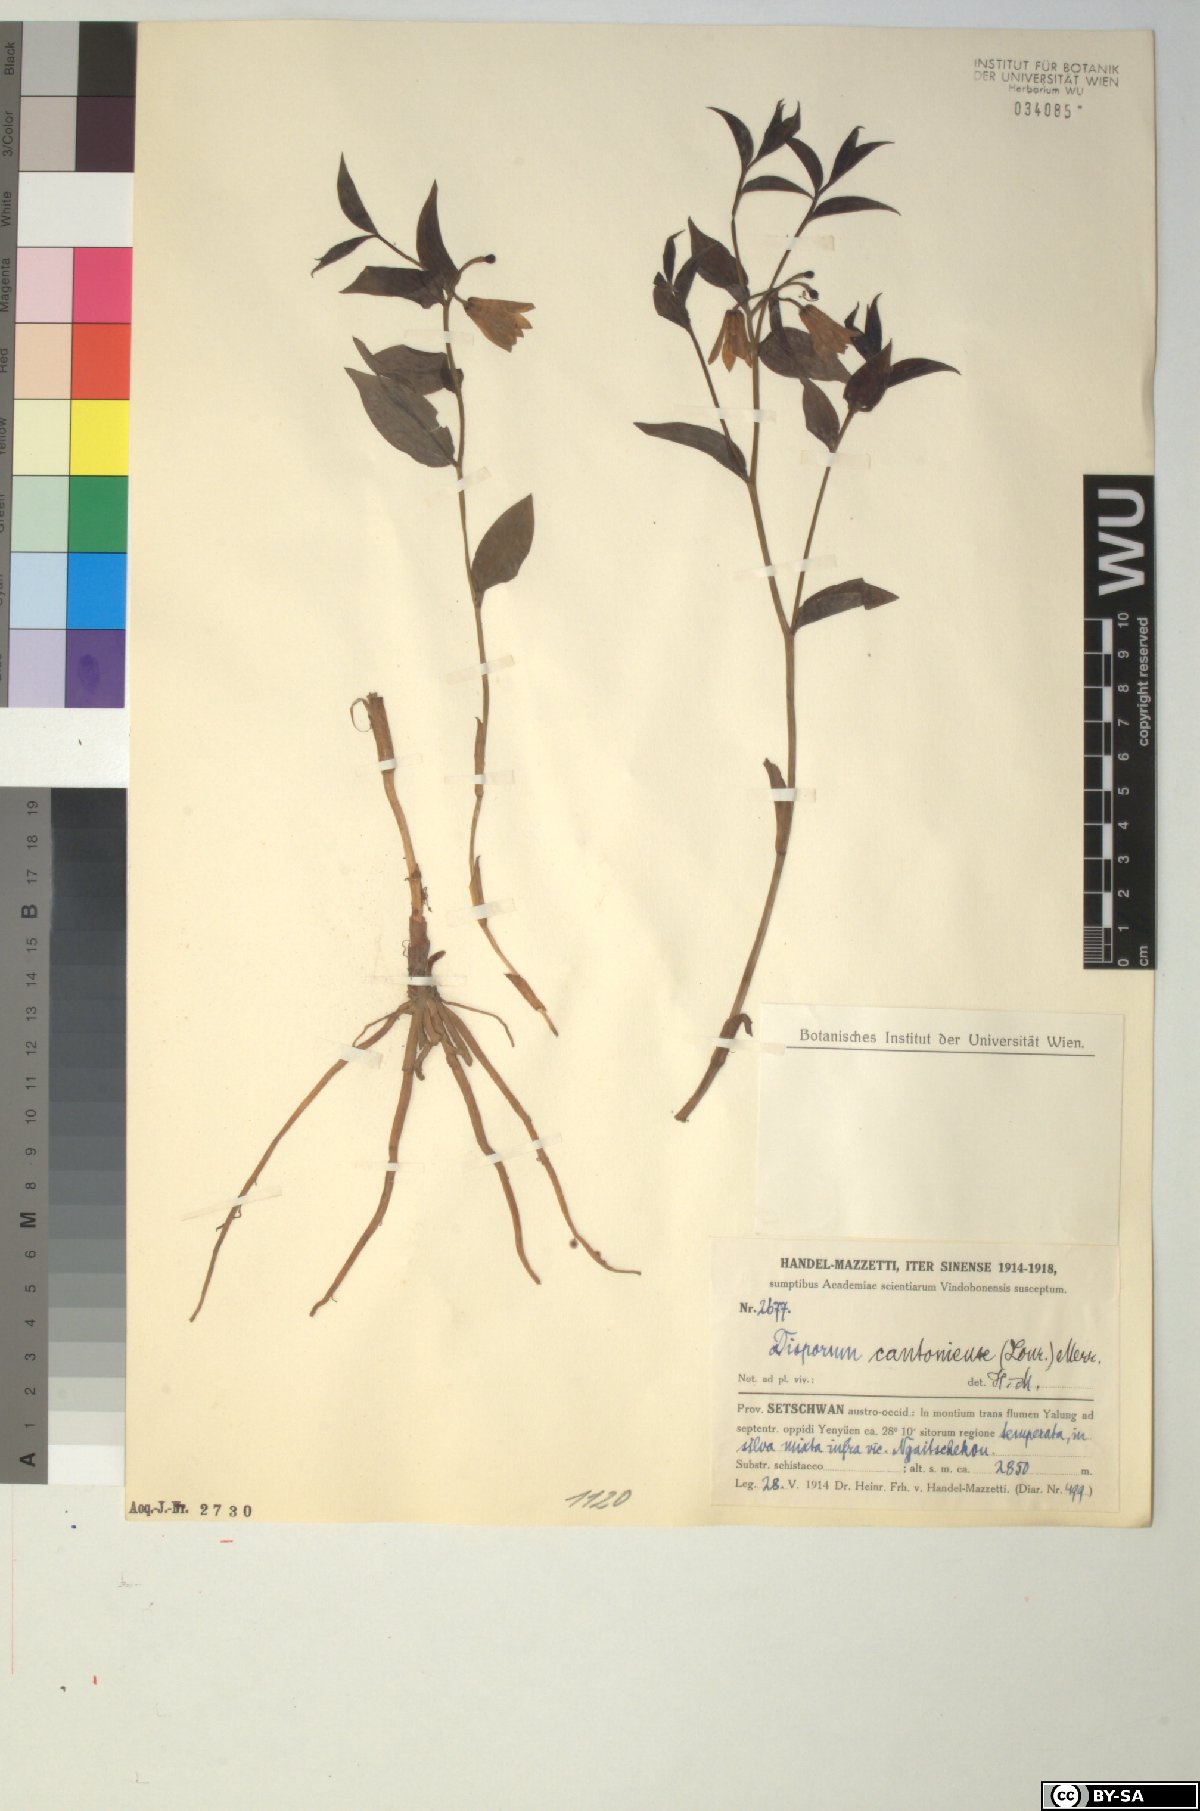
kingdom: Plantae
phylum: Tracheophyta
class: Liliopsida
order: Liliales
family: Colchicaceae
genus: Disporum
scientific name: Disporum cantoniense
